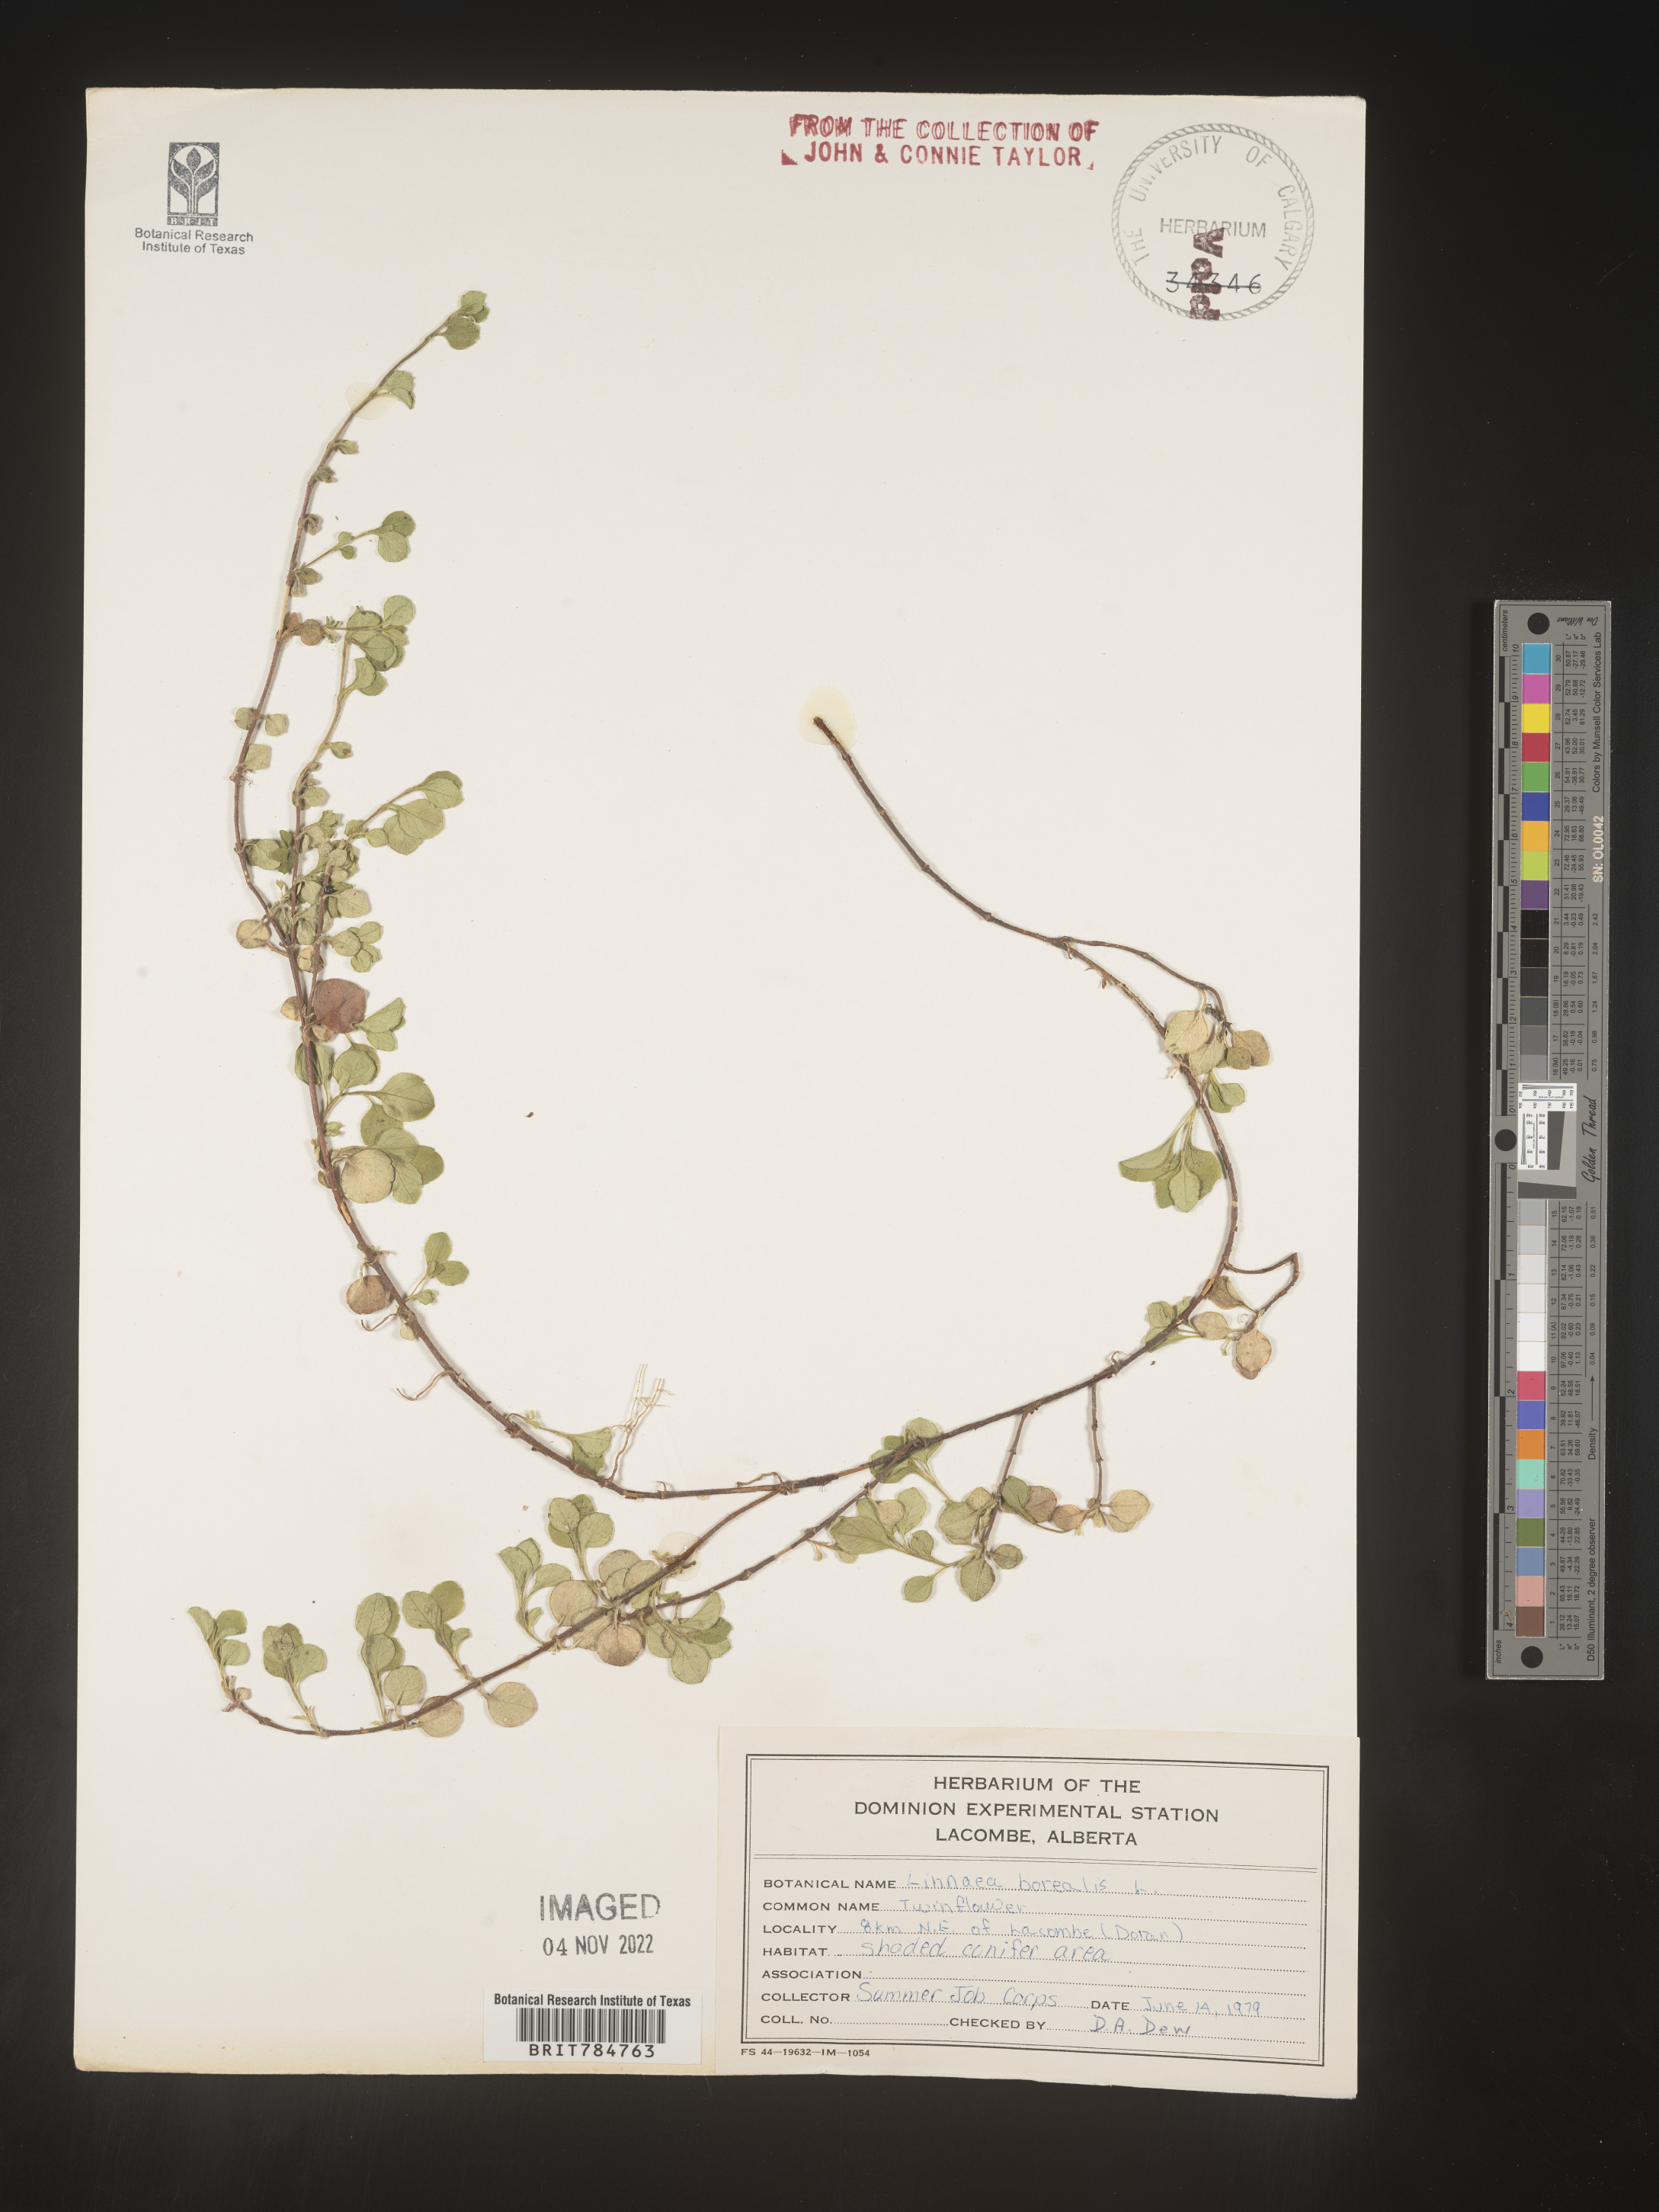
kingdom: Plantae
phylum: Tracheophyta
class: Magnoliopsida
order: Dipsacales
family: Caprifoliaceae
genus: Linnaea
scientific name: Linnaea borealis
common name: Twinflower
